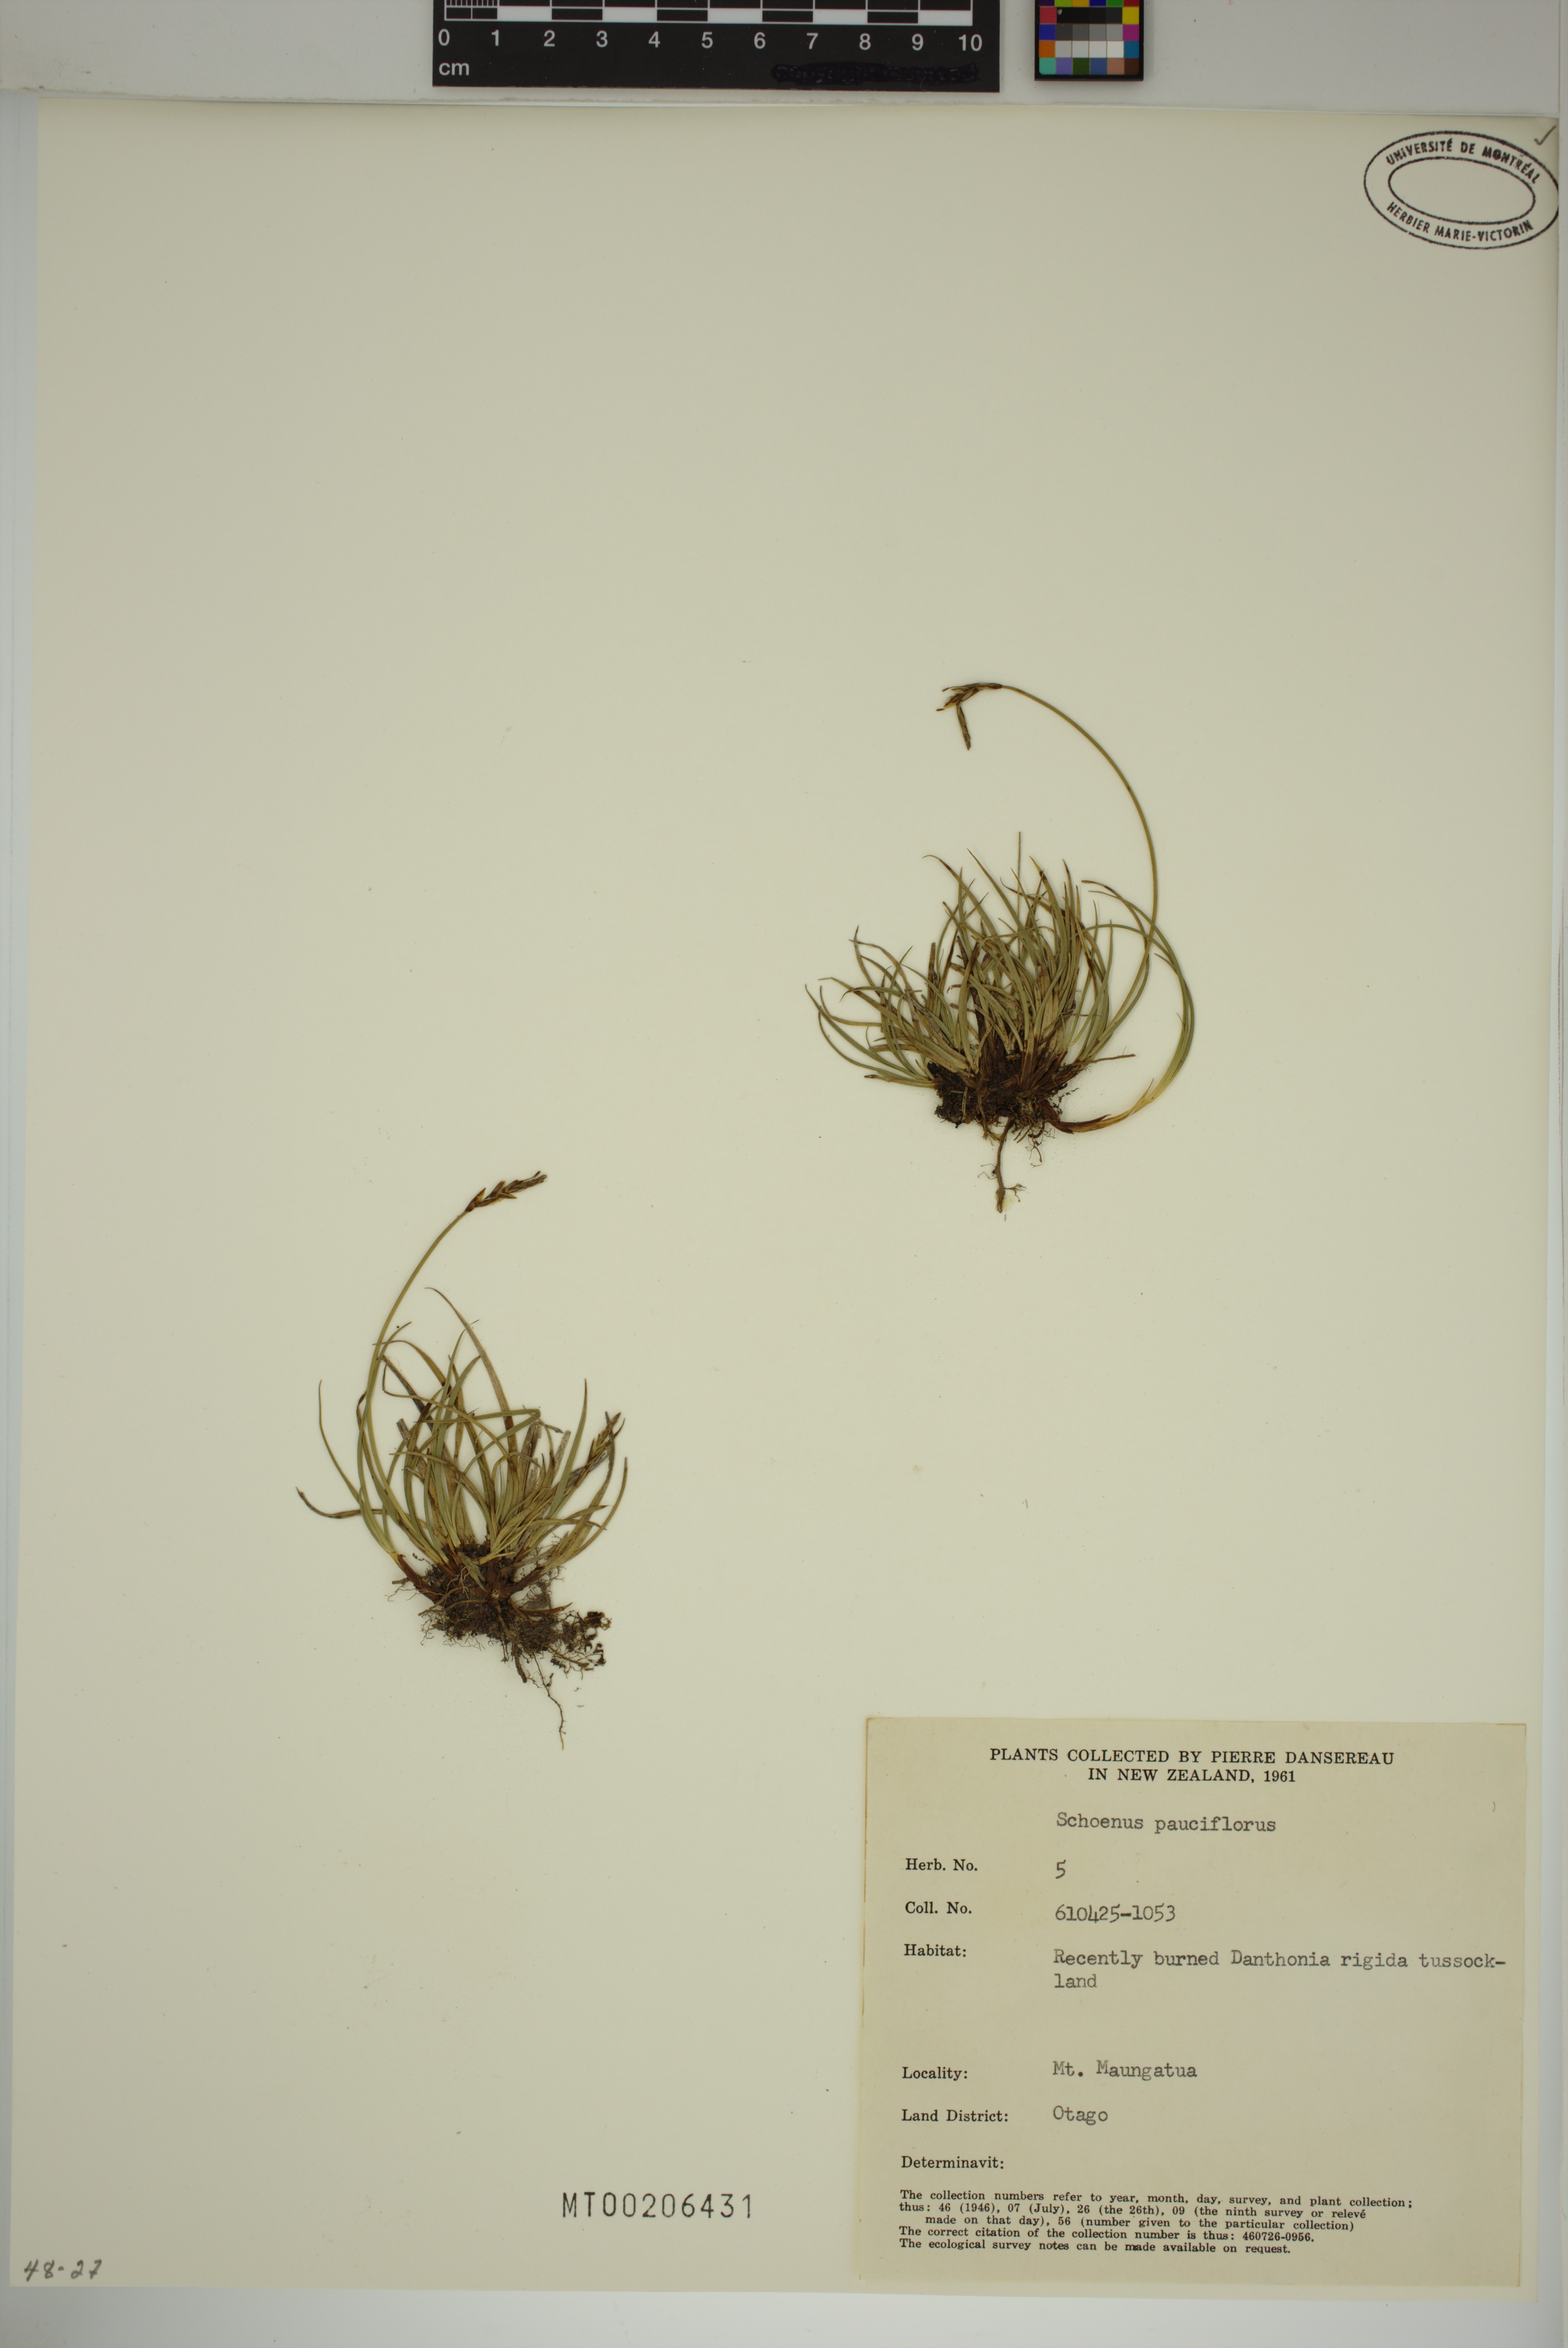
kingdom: Plantae
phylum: Tracheophyta
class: Liliopsida
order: Poales
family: Cyperaceae
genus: Schoenus
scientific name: Schoenus pauciflorus
